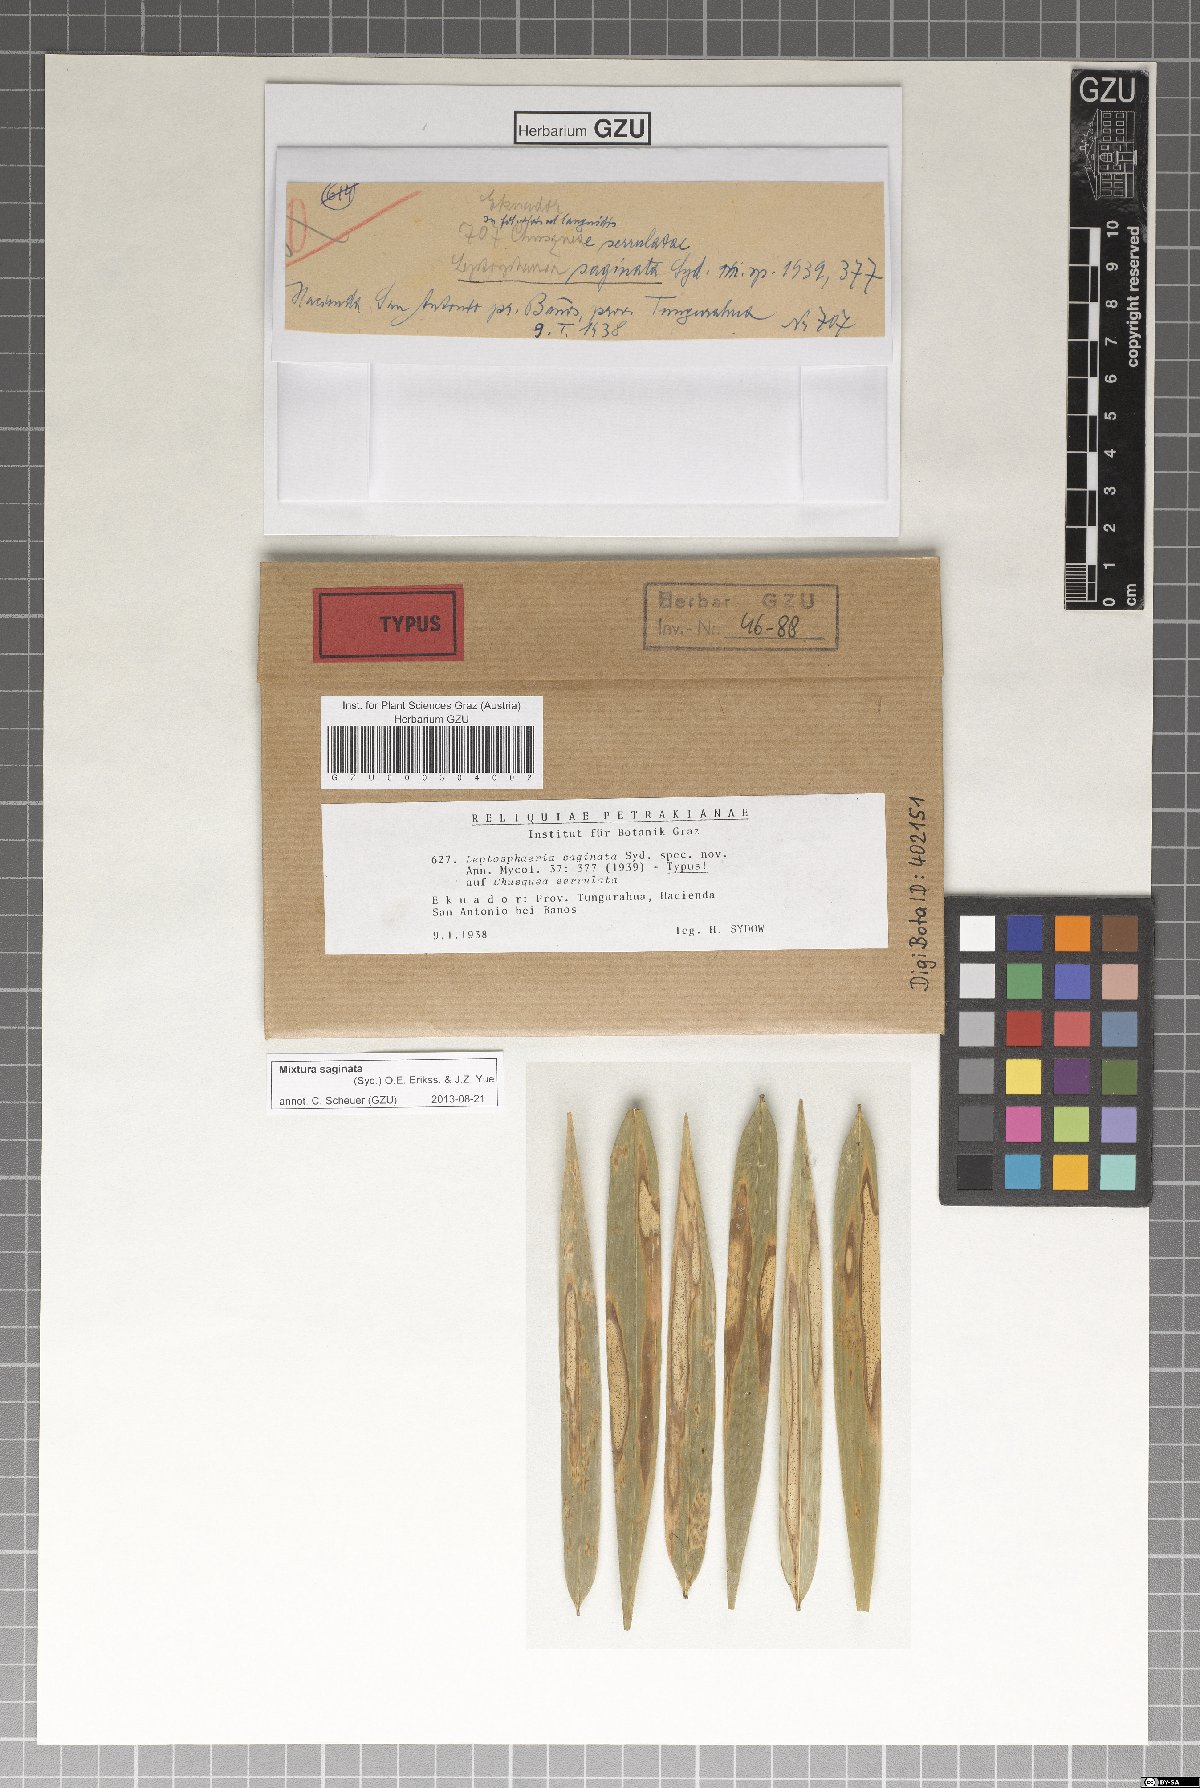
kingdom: Fungi
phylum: Ascomycota
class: Dothideomycetes
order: Pleosporales
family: Phaeosphaeriaceae
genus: Mixtura
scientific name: Mixtura saginata
